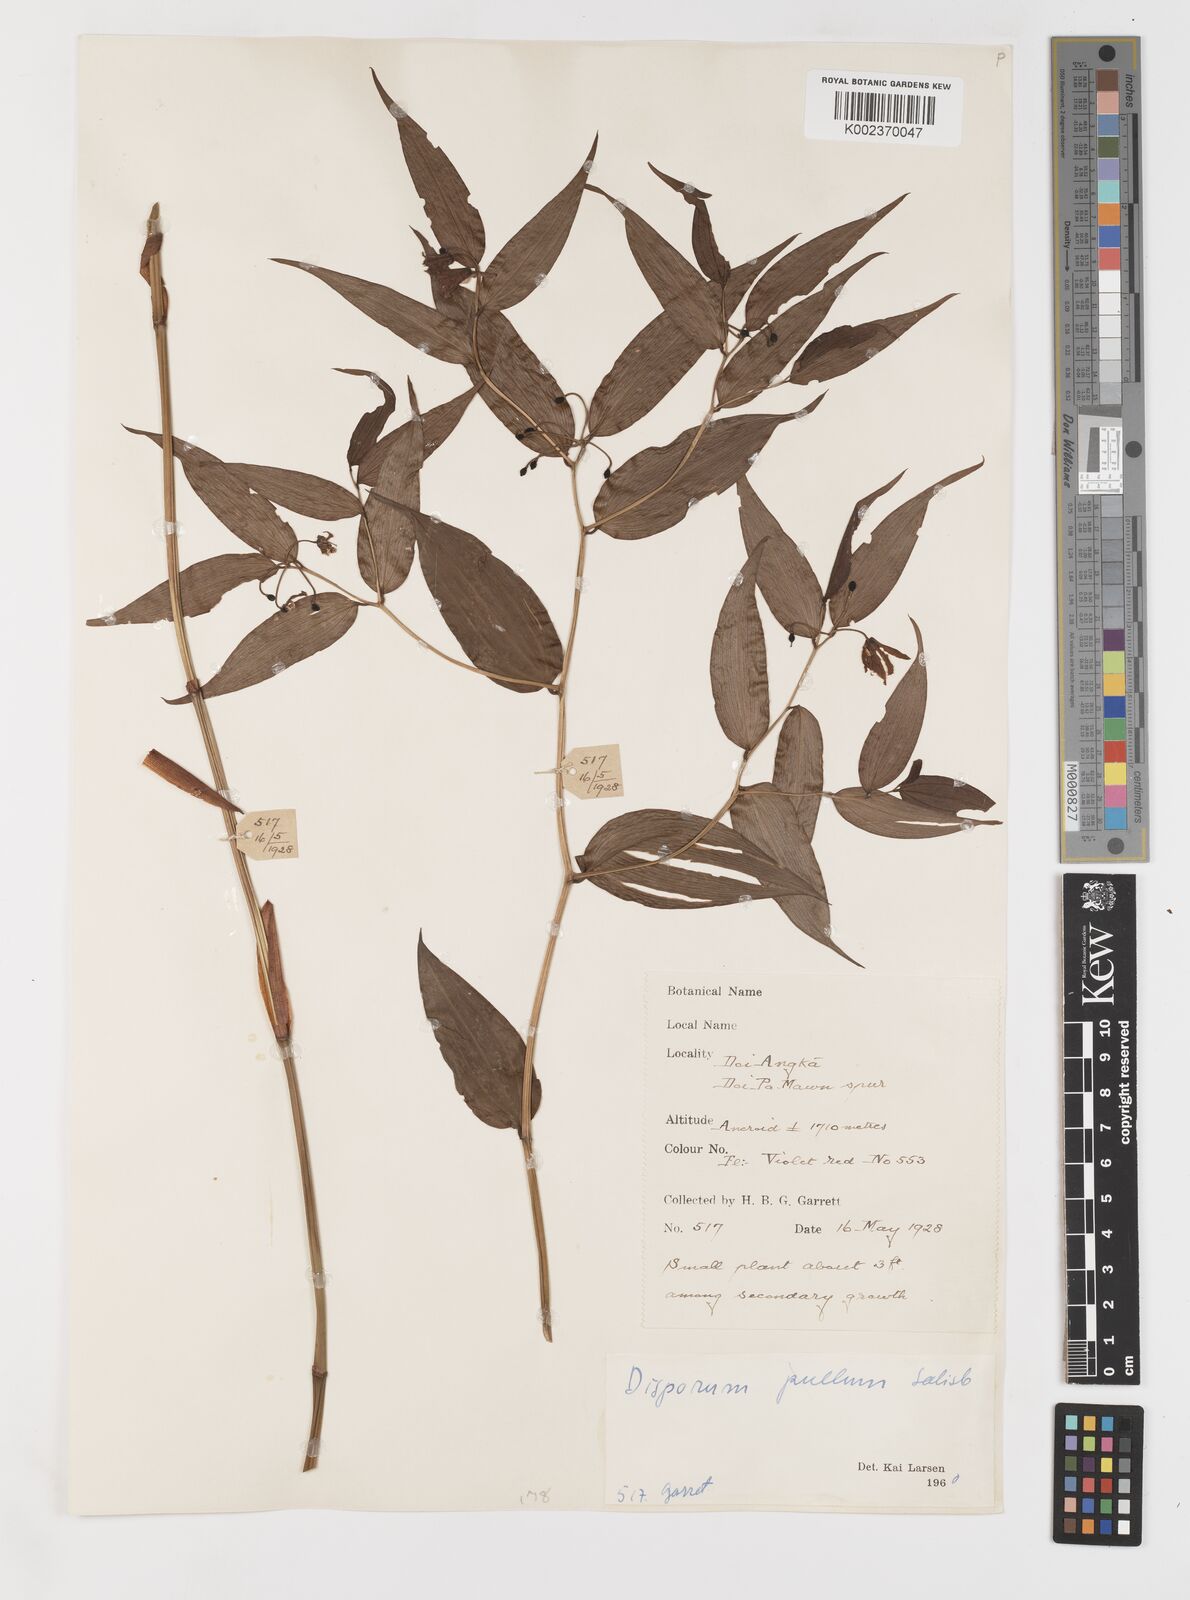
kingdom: Plantae
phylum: Tracheophyta
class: Liliopsida
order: Liliales
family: Colchicaceae
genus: Disporum
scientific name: Disporum cantoniense
